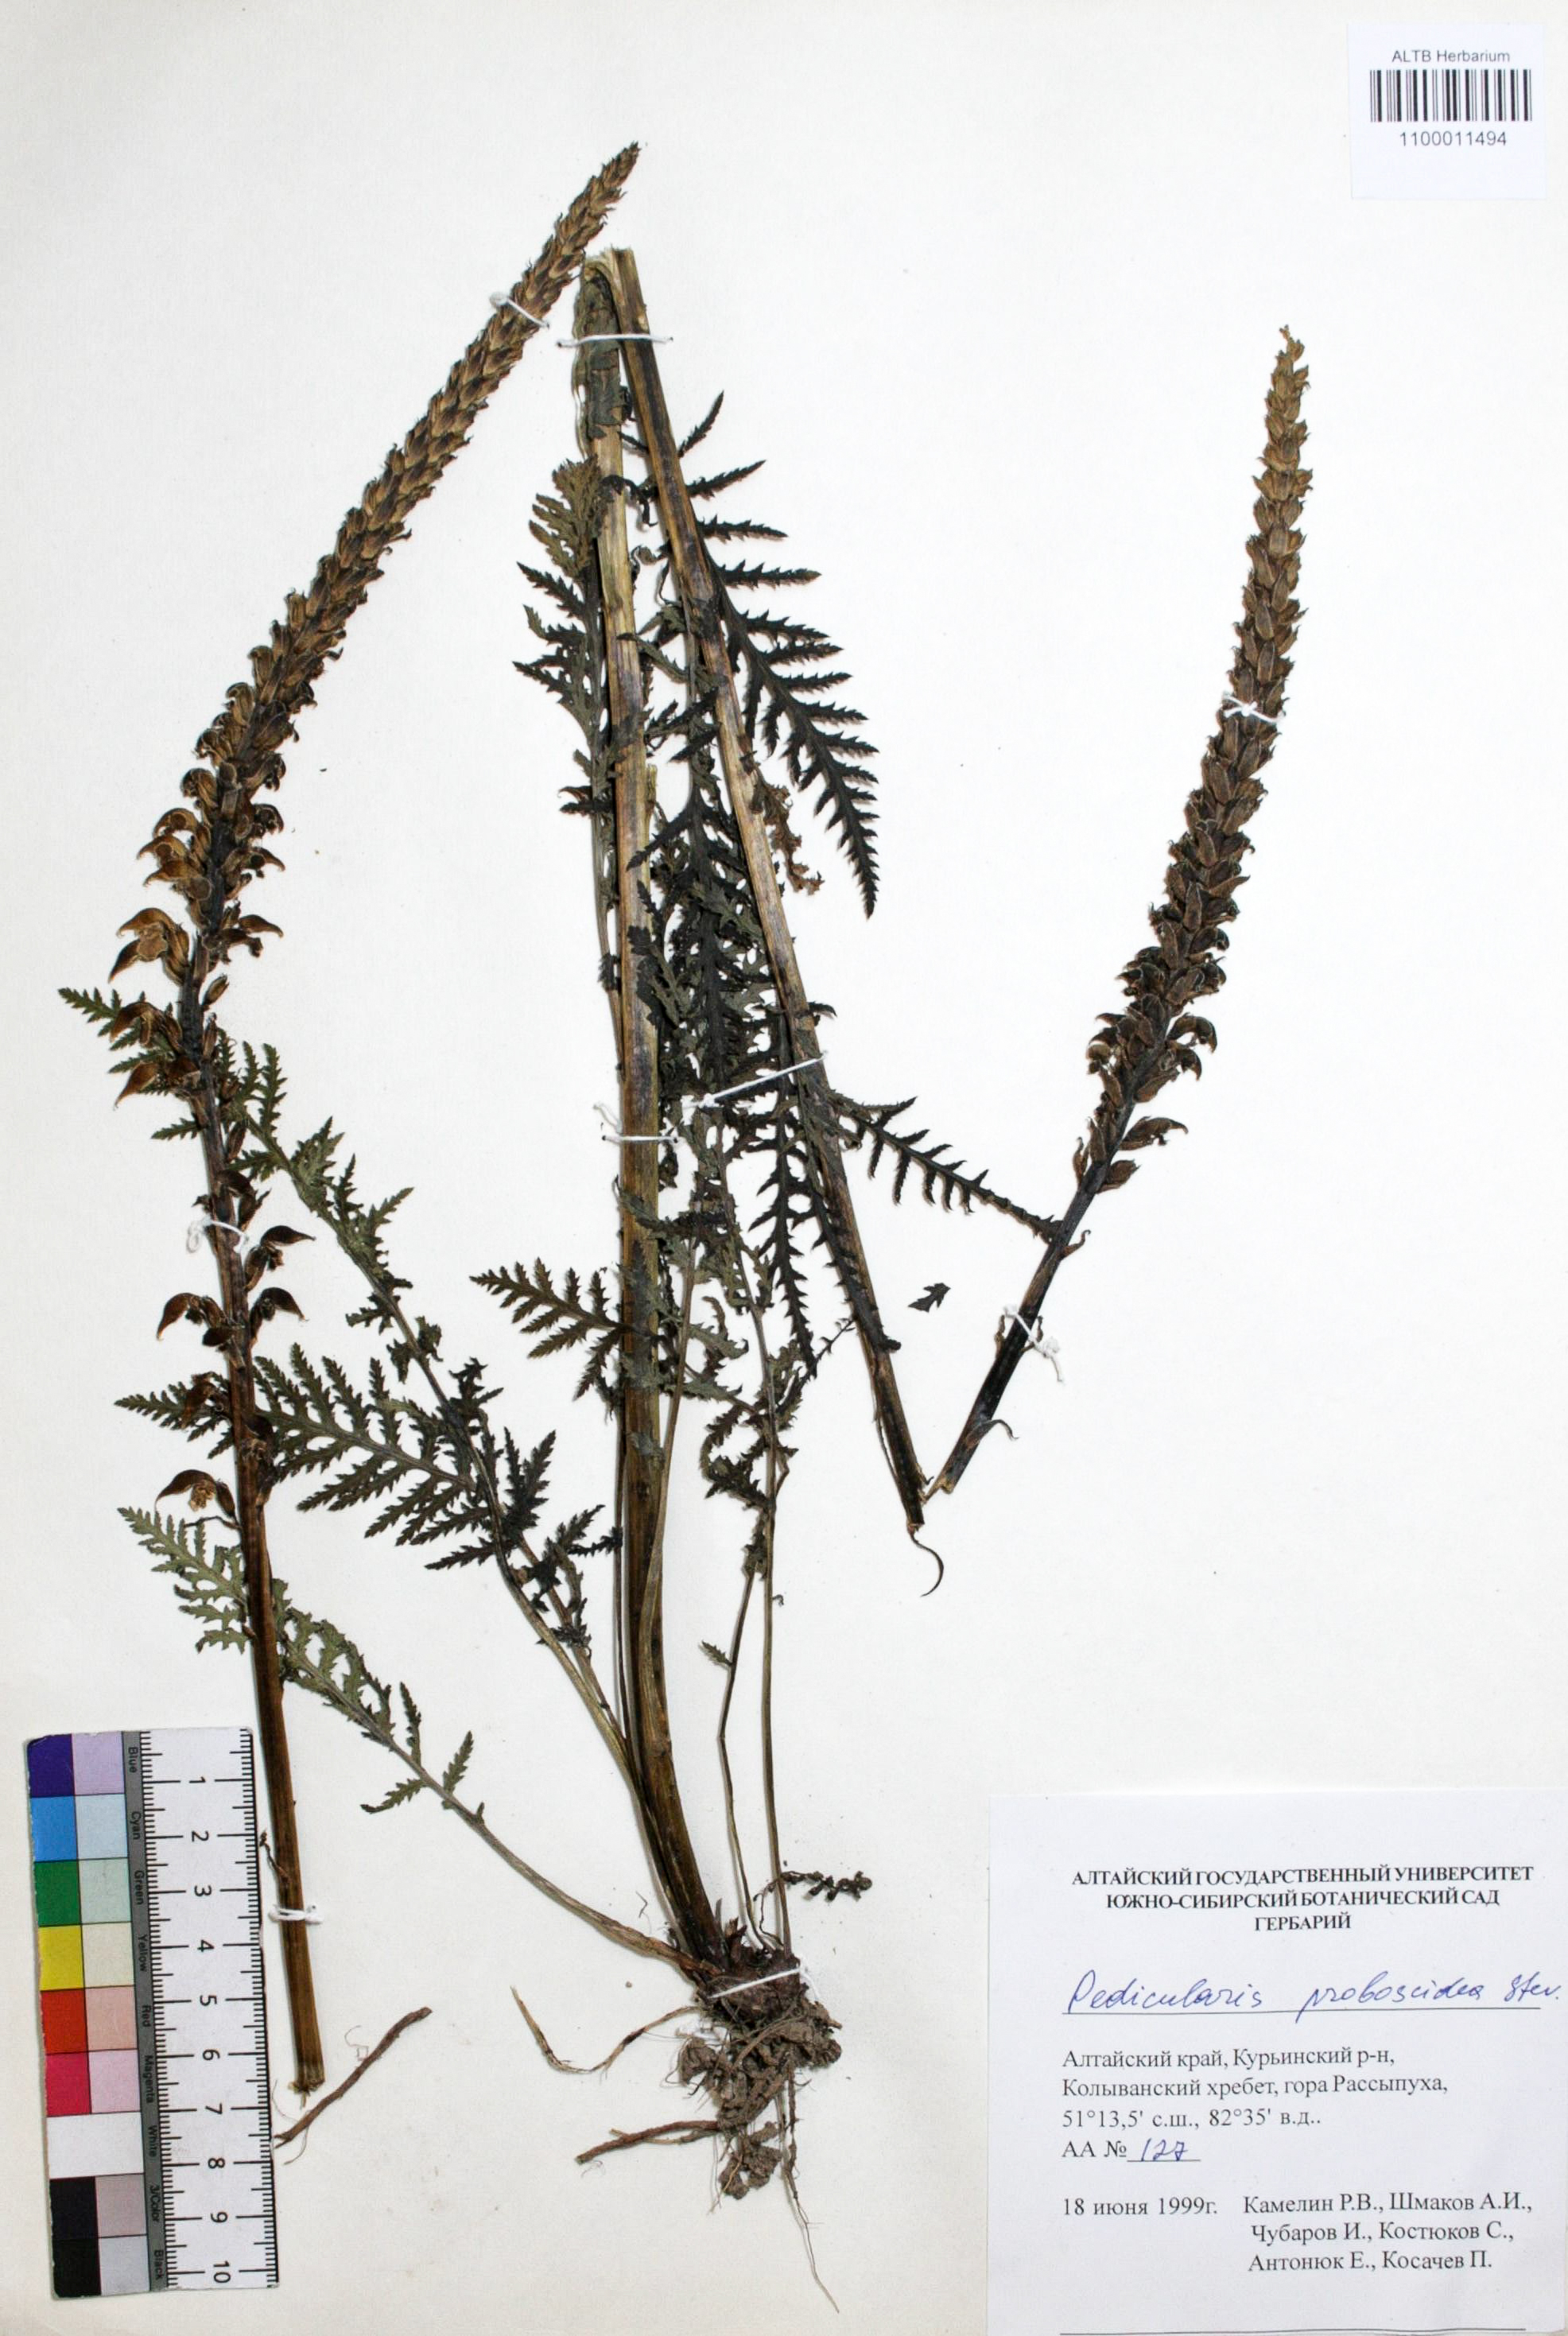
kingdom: Plantae
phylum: Tracheophyta
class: Magnoliopsida
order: Lamiales
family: Orobanchaceae
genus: Pedicularis
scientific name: Pedicularis proboscidea
